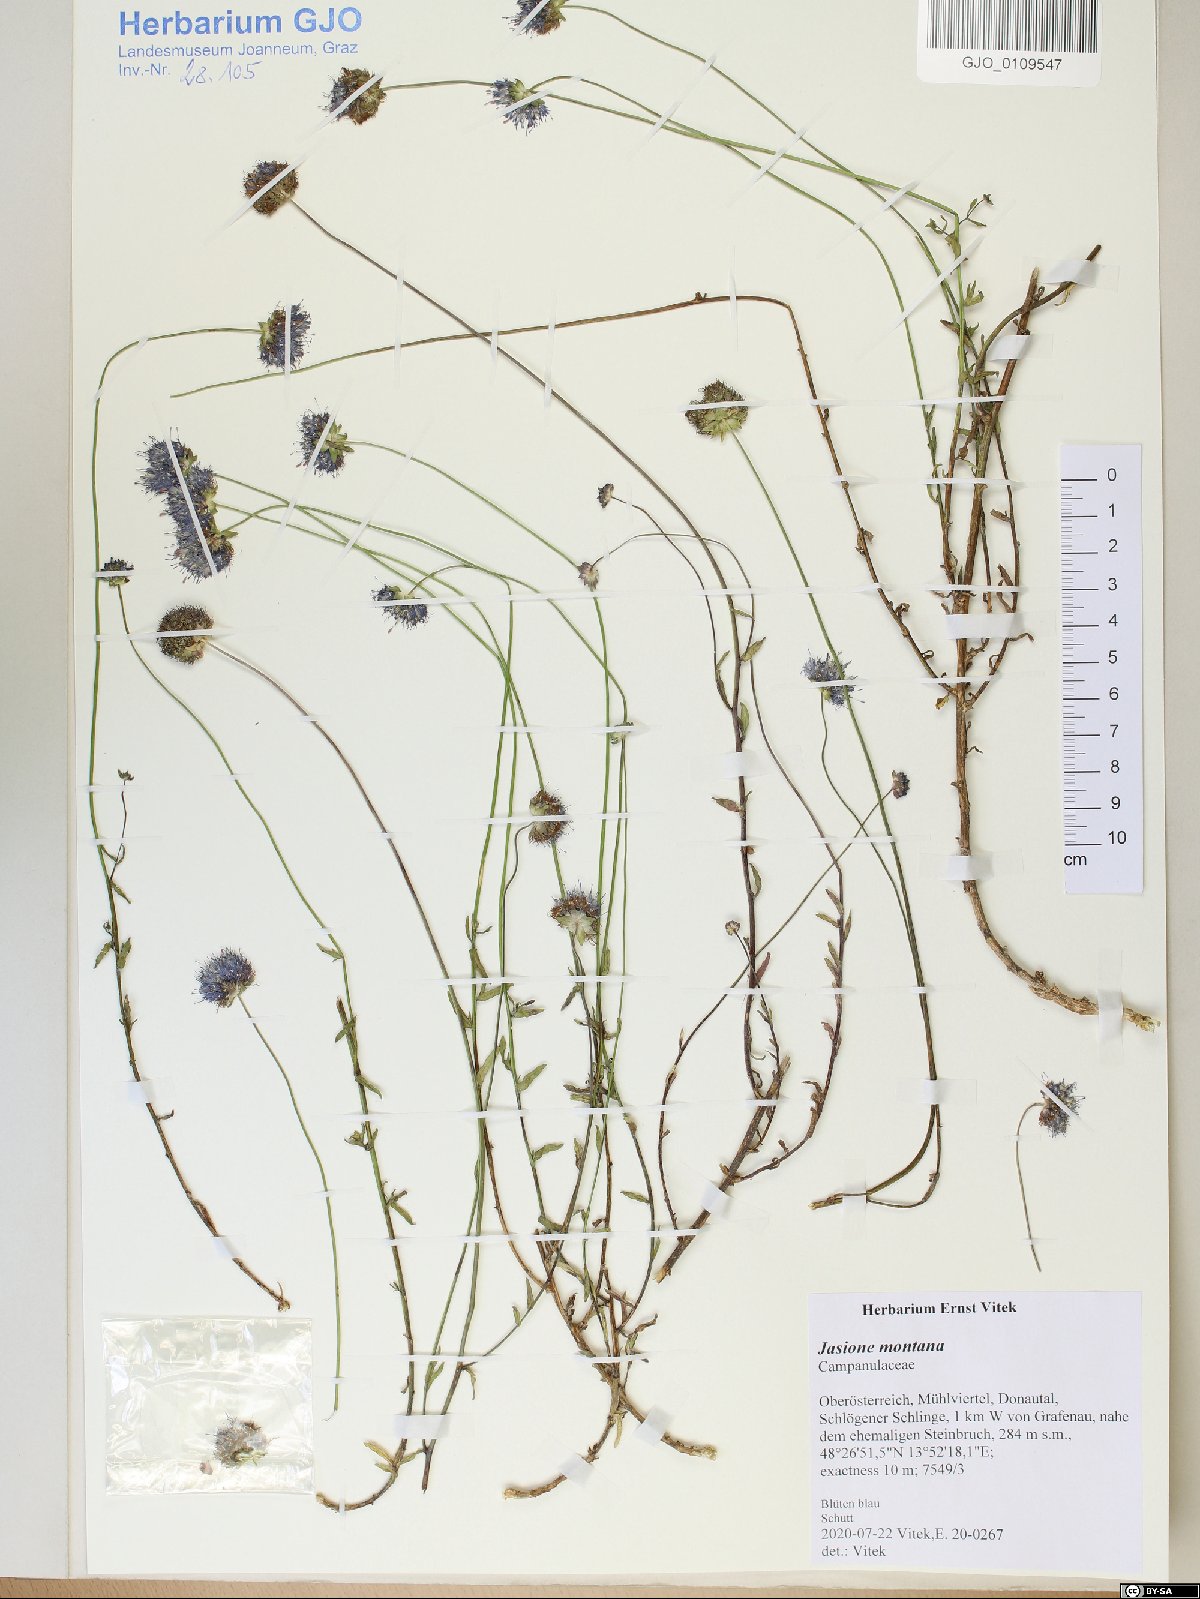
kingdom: Plantae
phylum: Tracheophyta
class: Magnoliopsida
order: Asterales
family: Campanulaceae
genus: Jasione
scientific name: Jasione montana
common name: Sheep's-bit
